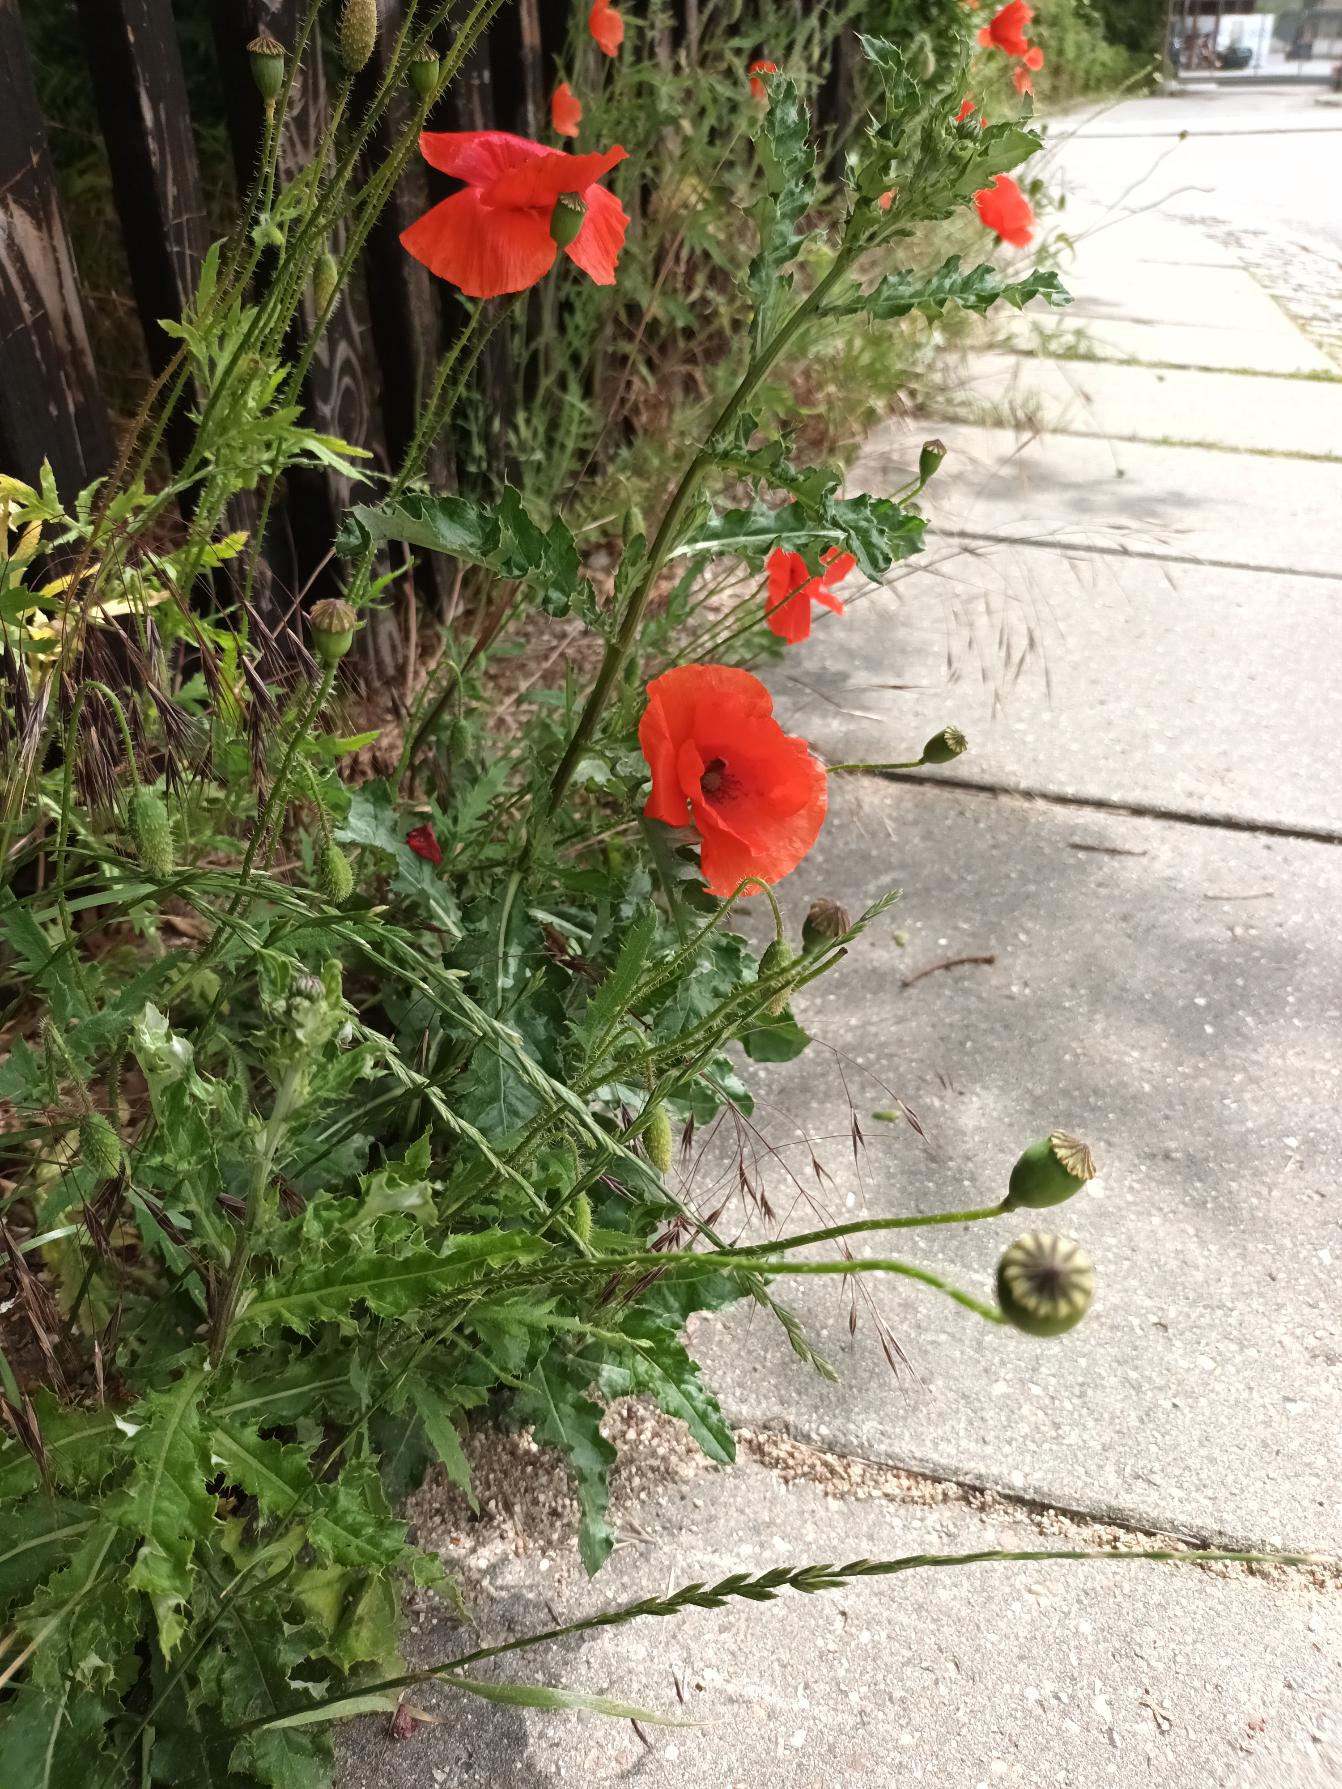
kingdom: Plantae
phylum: Tracheophyta
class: Magnoliopsida
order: Ranunculales
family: Papaveraceae
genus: Papaver
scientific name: Papaver rhoeas
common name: Korn-valmue
